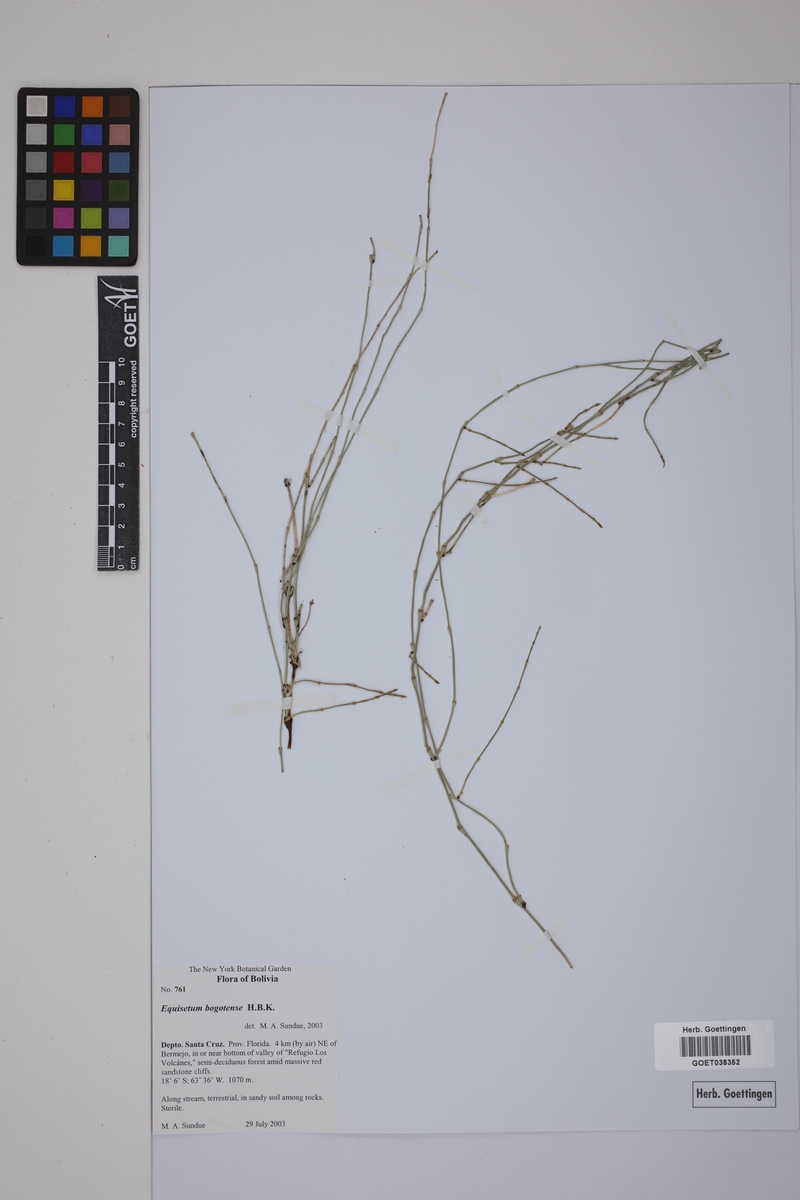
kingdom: Plantae
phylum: Tracheophyta
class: Polypodiopsida
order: Equisetales
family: Equisetaceae
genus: Equisetum
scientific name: Equisetum bogotense
